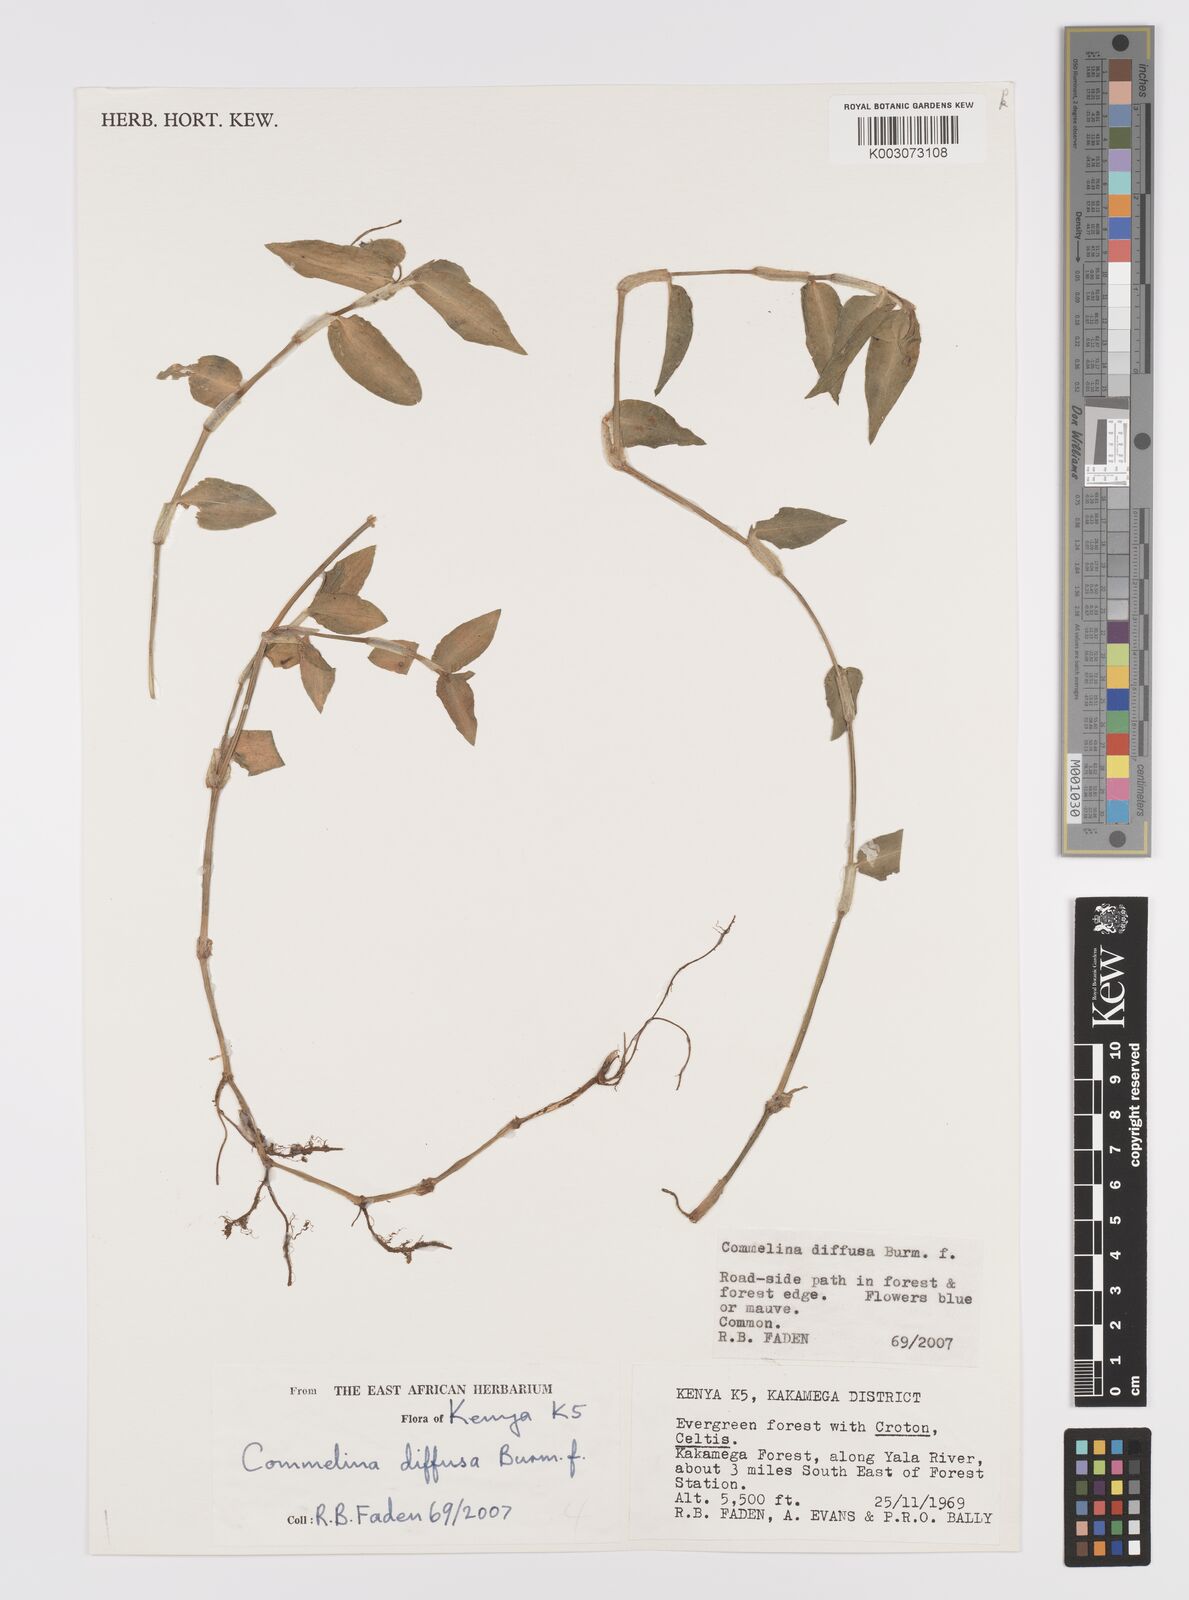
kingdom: Plantae
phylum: Tracheophyta
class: Liliopsida
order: Commelinales
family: Commelinaceae
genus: Commelina
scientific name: Commelina diffusa
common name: Climbing dayflower
